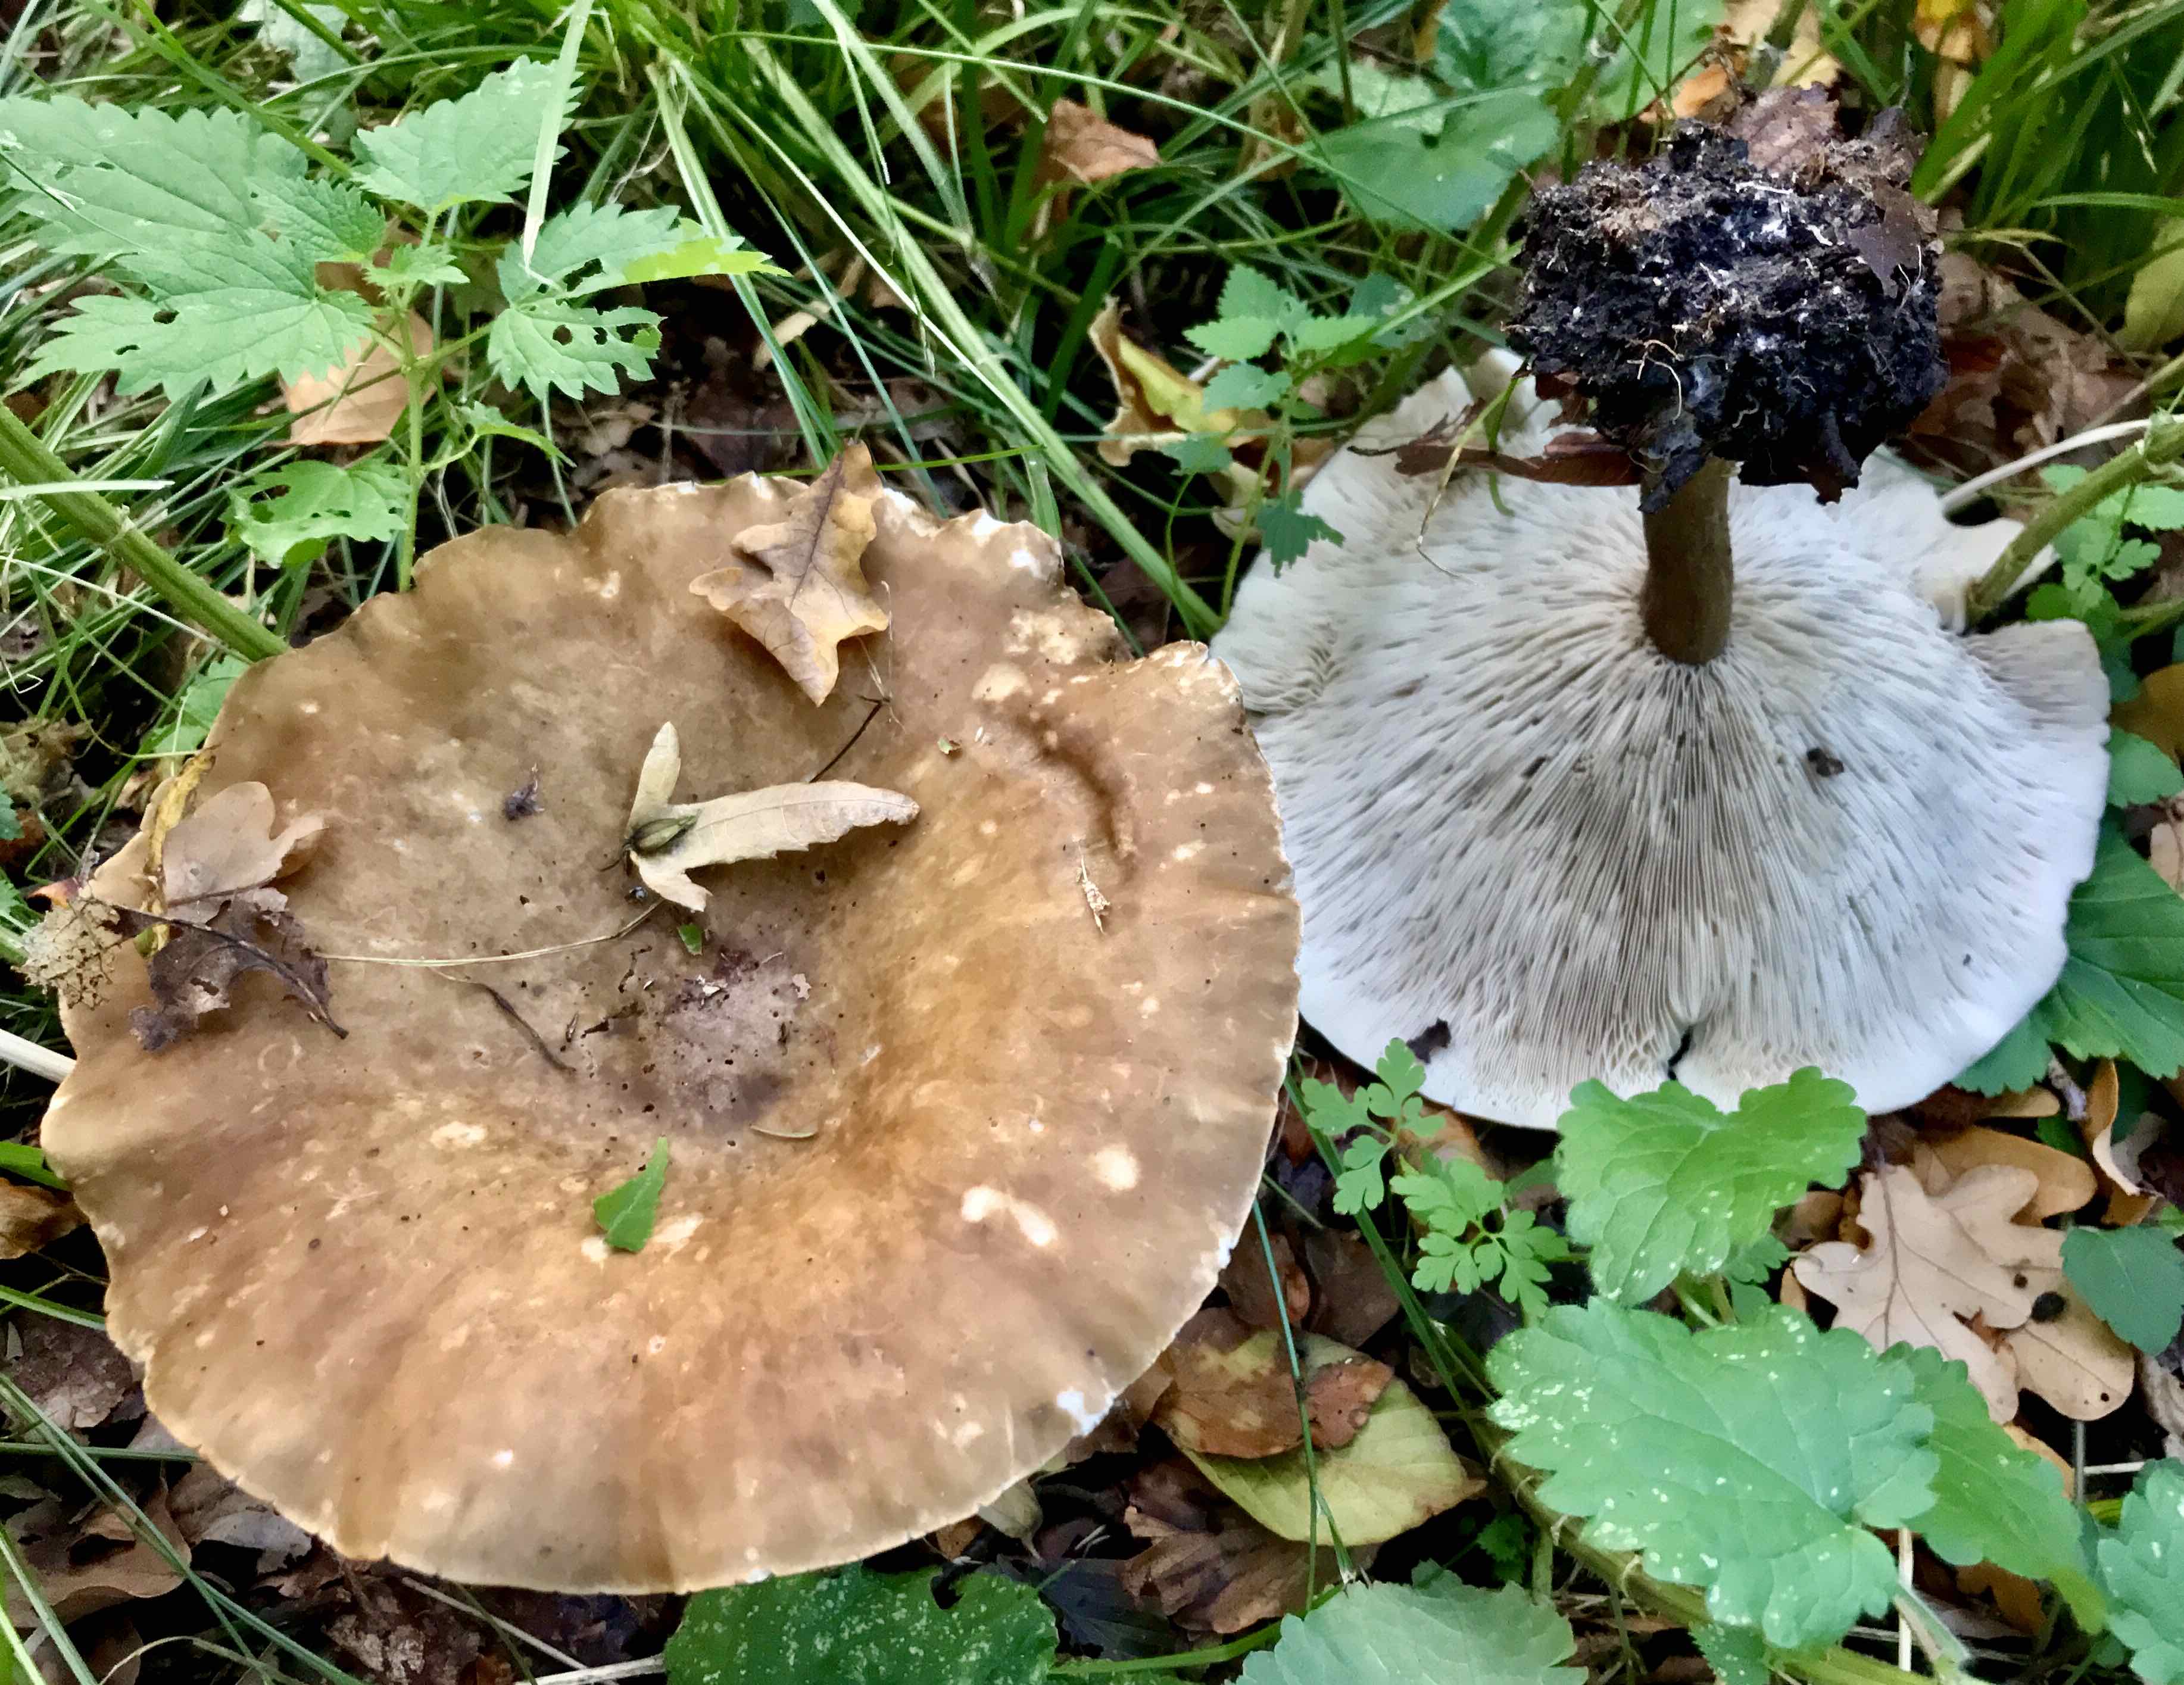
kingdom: Fungi
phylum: Basidiomycota
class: Agaricomycetes
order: Agaricales
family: Tricholomataceae
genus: Melanoleuca
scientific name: Melanoleuca grammopodia
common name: stribestokket munkehat
